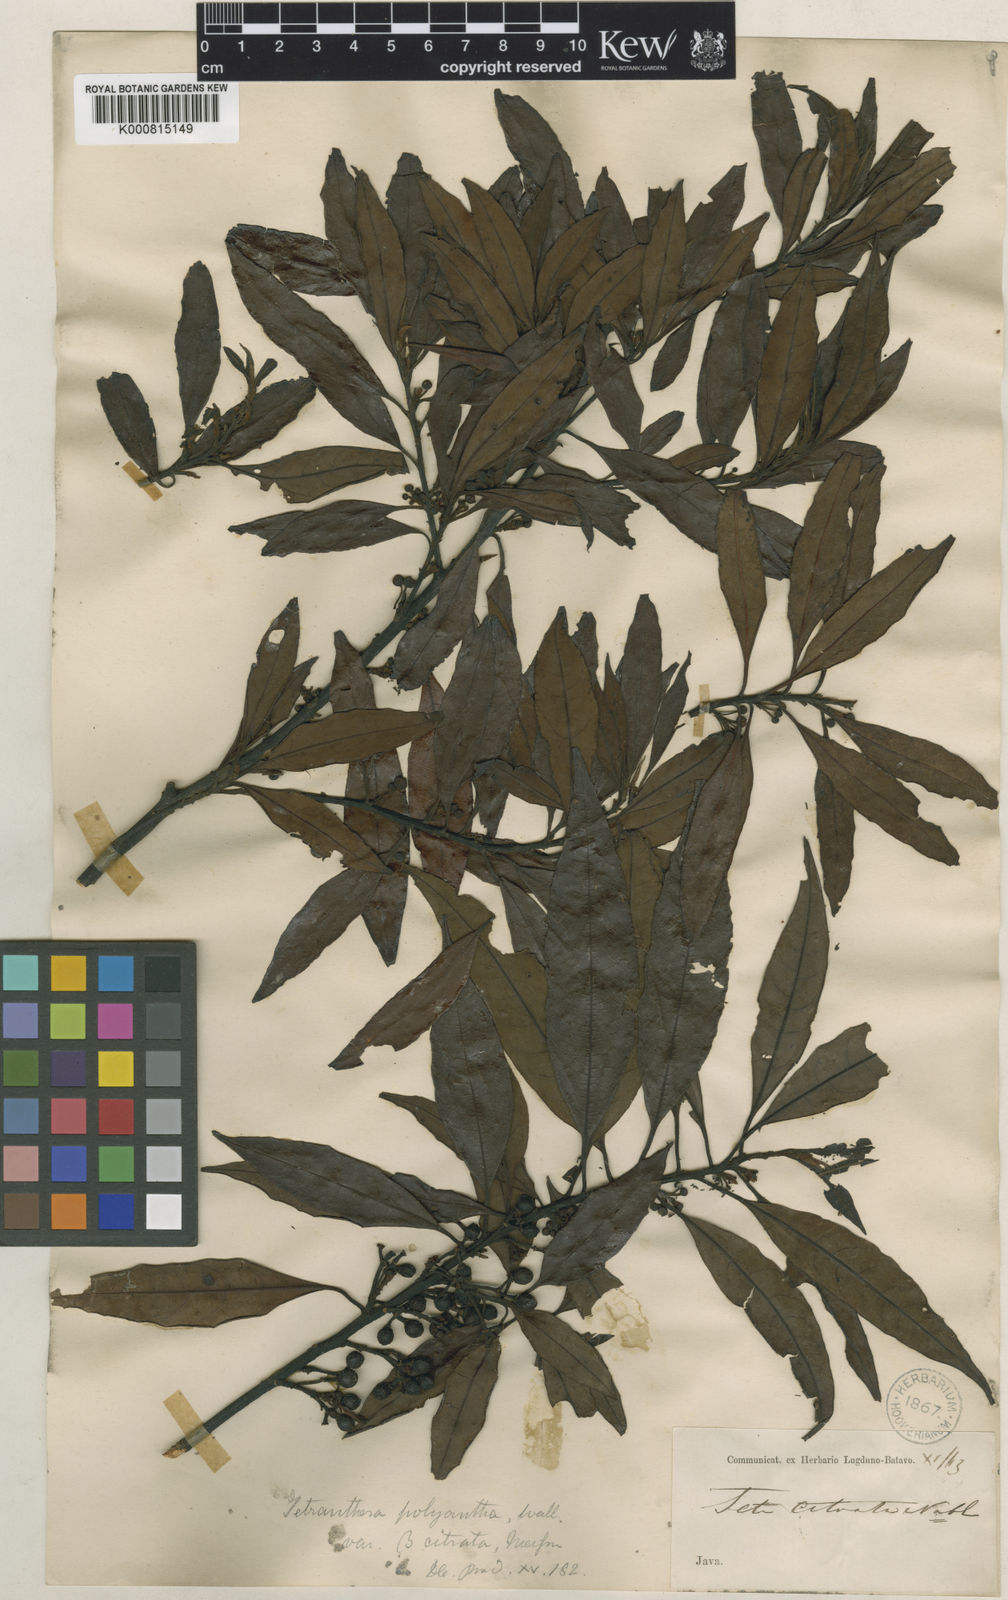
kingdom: Plantae
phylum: Tracheophyta
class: Magnoliopsida
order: Laurales
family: Lauraceae
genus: Litsea
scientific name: Litsea cubeba
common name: Mountain-pepper
